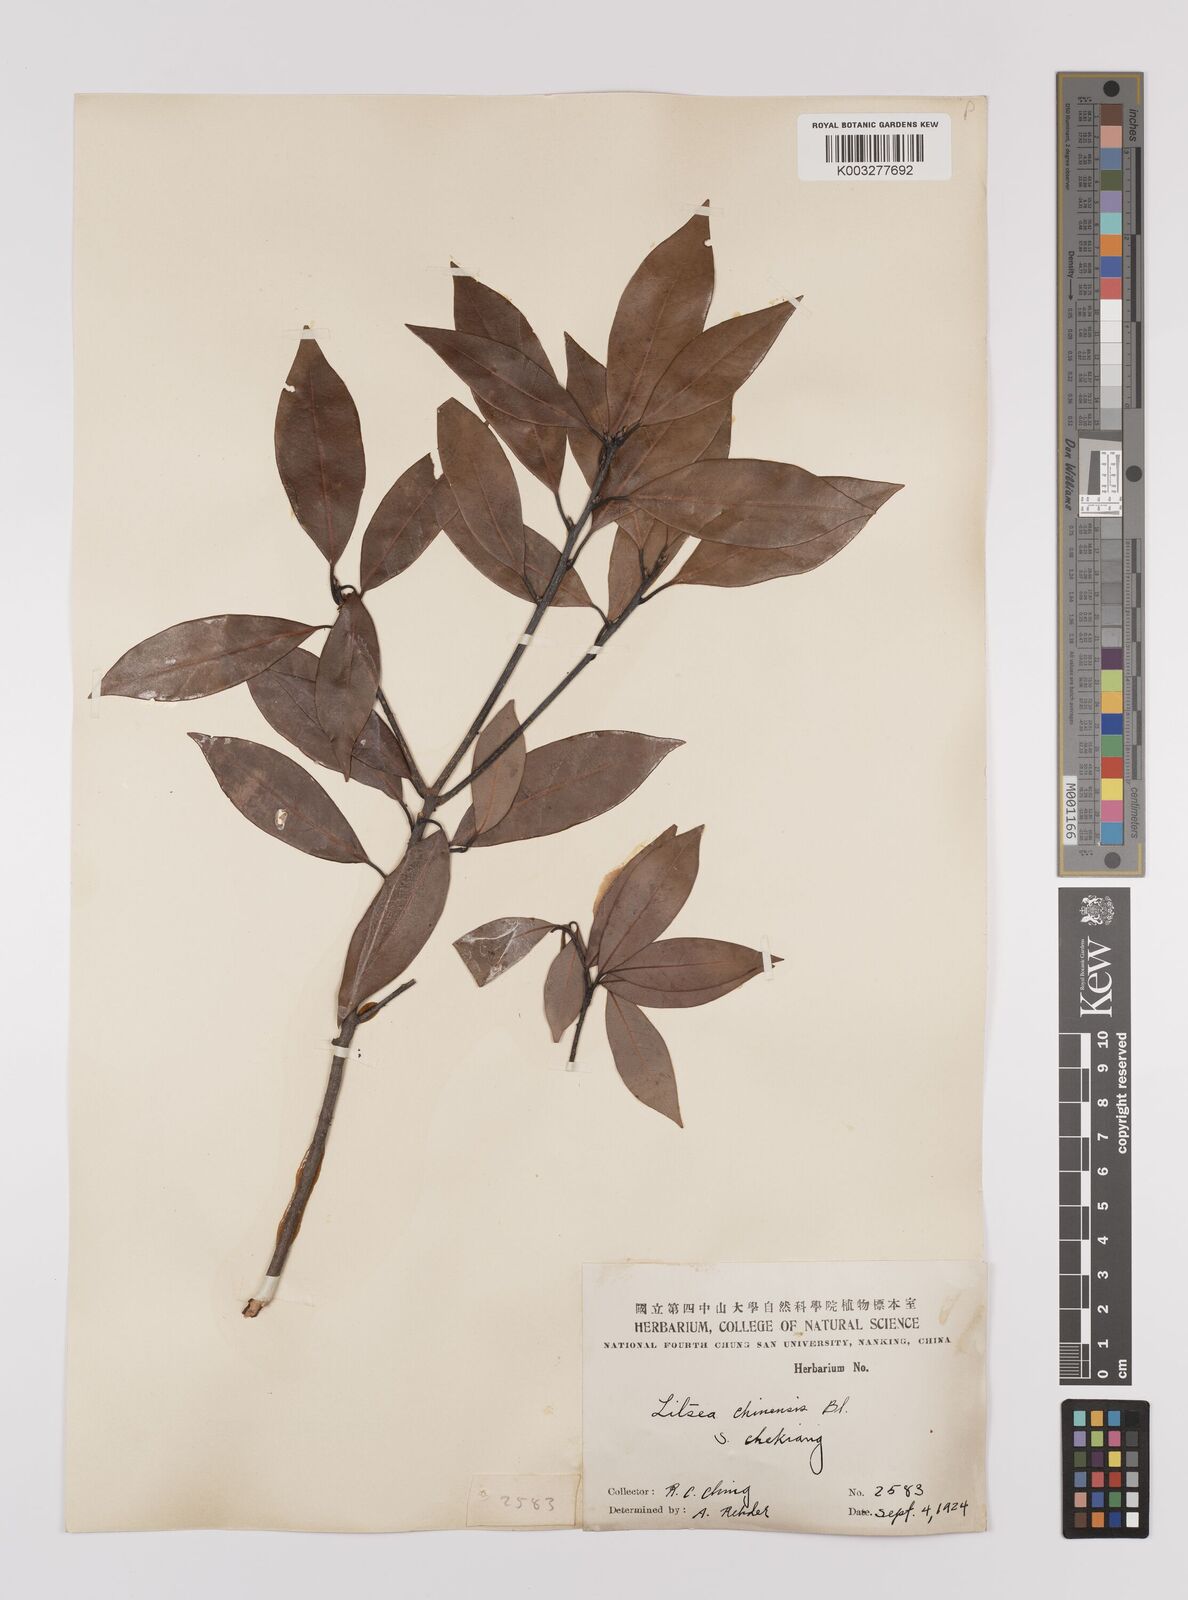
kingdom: Plantae
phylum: Tracheophyta
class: Magnoliopsida
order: Laurales
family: Lauraceae
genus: Litsea
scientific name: Litsea rotundifolia
